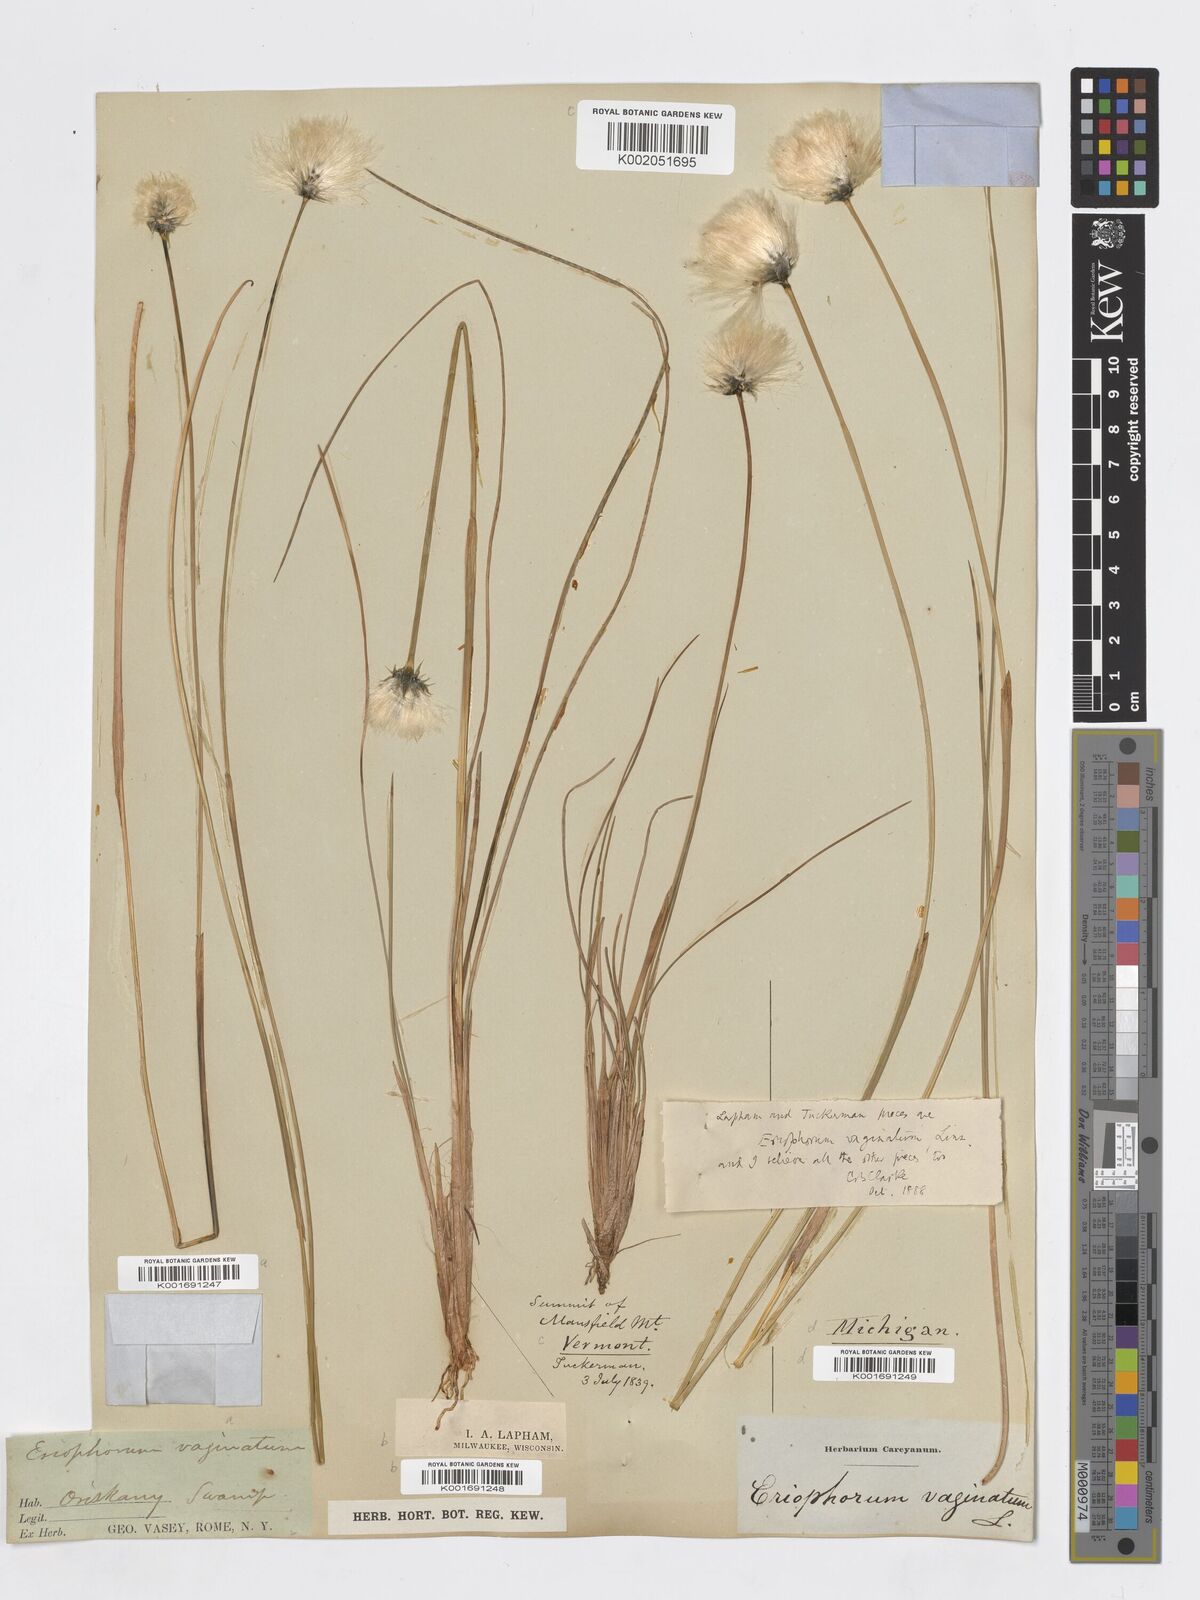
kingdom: Plantae
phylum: Tracheophyta
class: Liliopsida
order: Poales
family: Cyperaceae
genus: Eriophorum
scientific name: Eriophorum vaginatum
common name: Hare's-tail cottongrass
